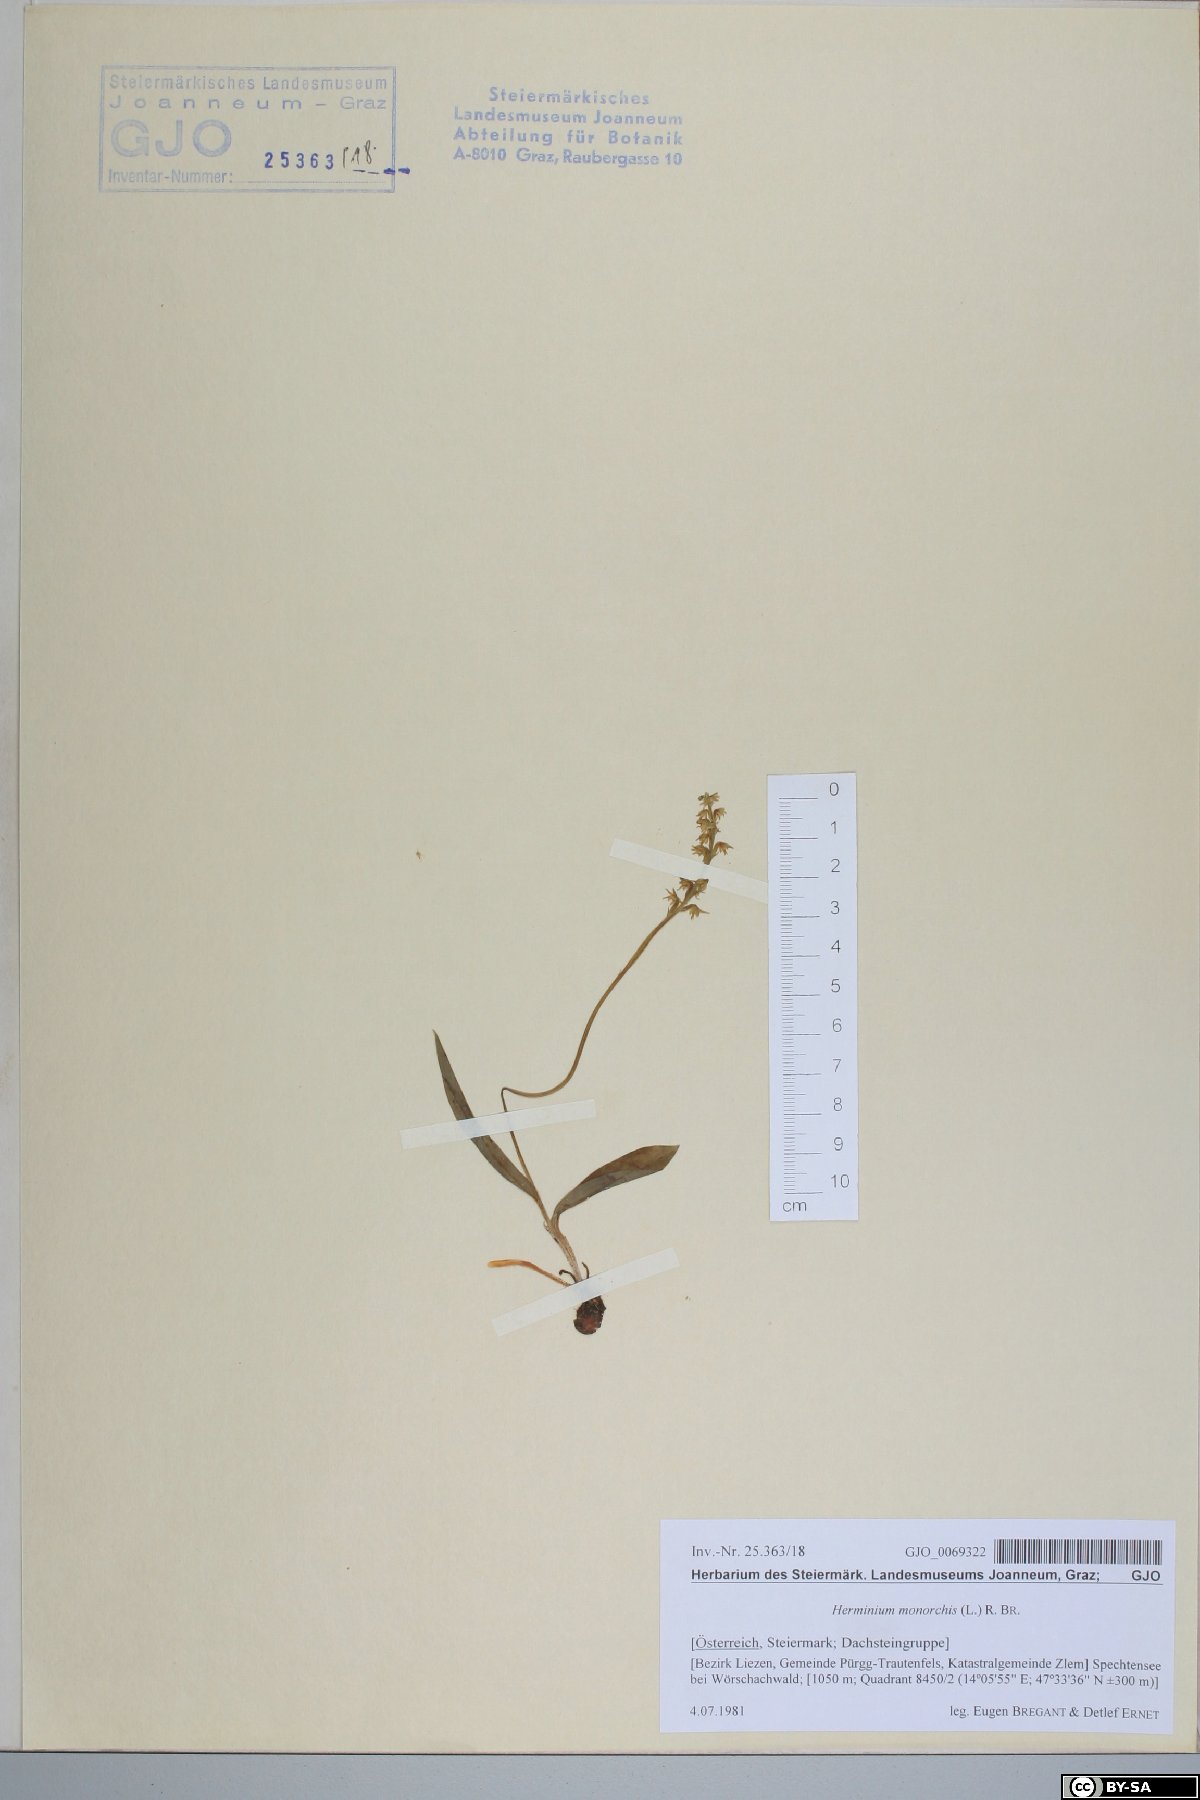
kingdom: Plantae
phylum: Tracheophyta
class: Liliopsida
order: Asparagales
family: Orchidaceae
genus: Herminium
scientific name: Herminium monorchis
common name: Musk orchid
